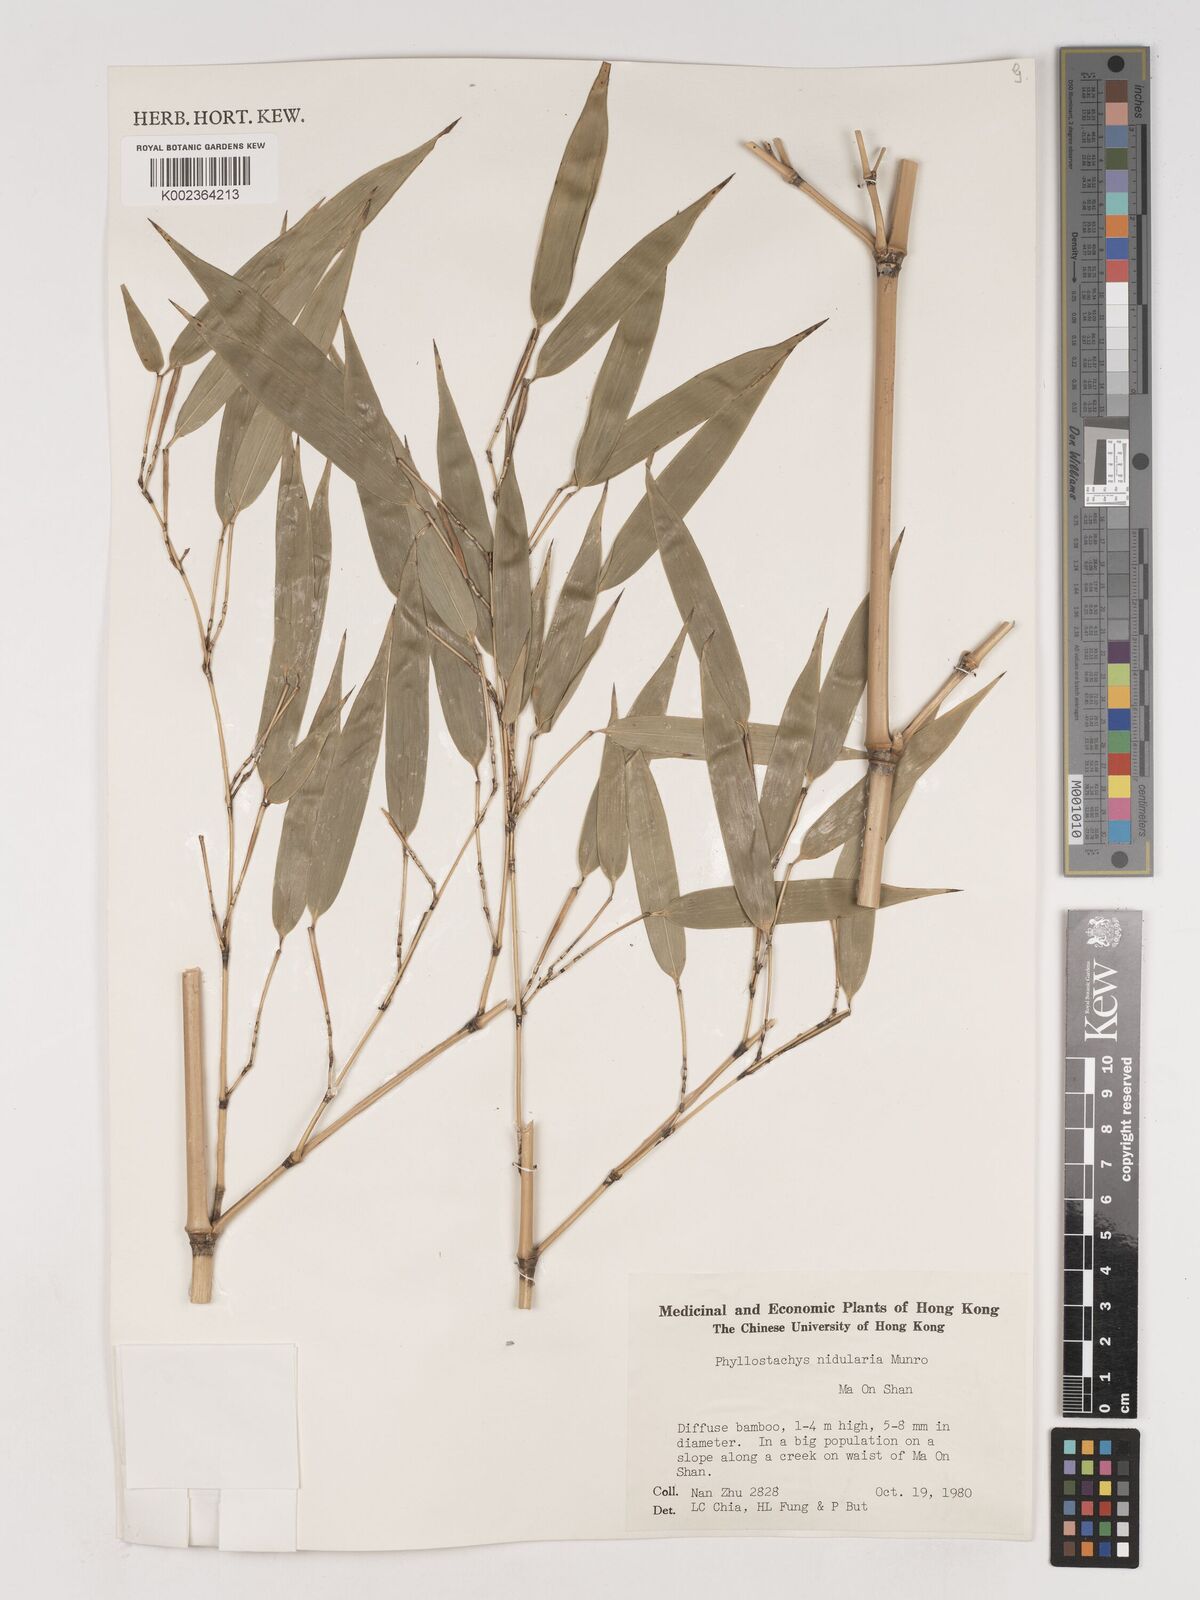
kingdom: Plantae
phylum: Tracheophyta
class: Liliopsida
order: Poales
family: Poaceae
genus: Phyllostachys
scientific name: Phyllostachys nidularia
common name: Broom bamboo
